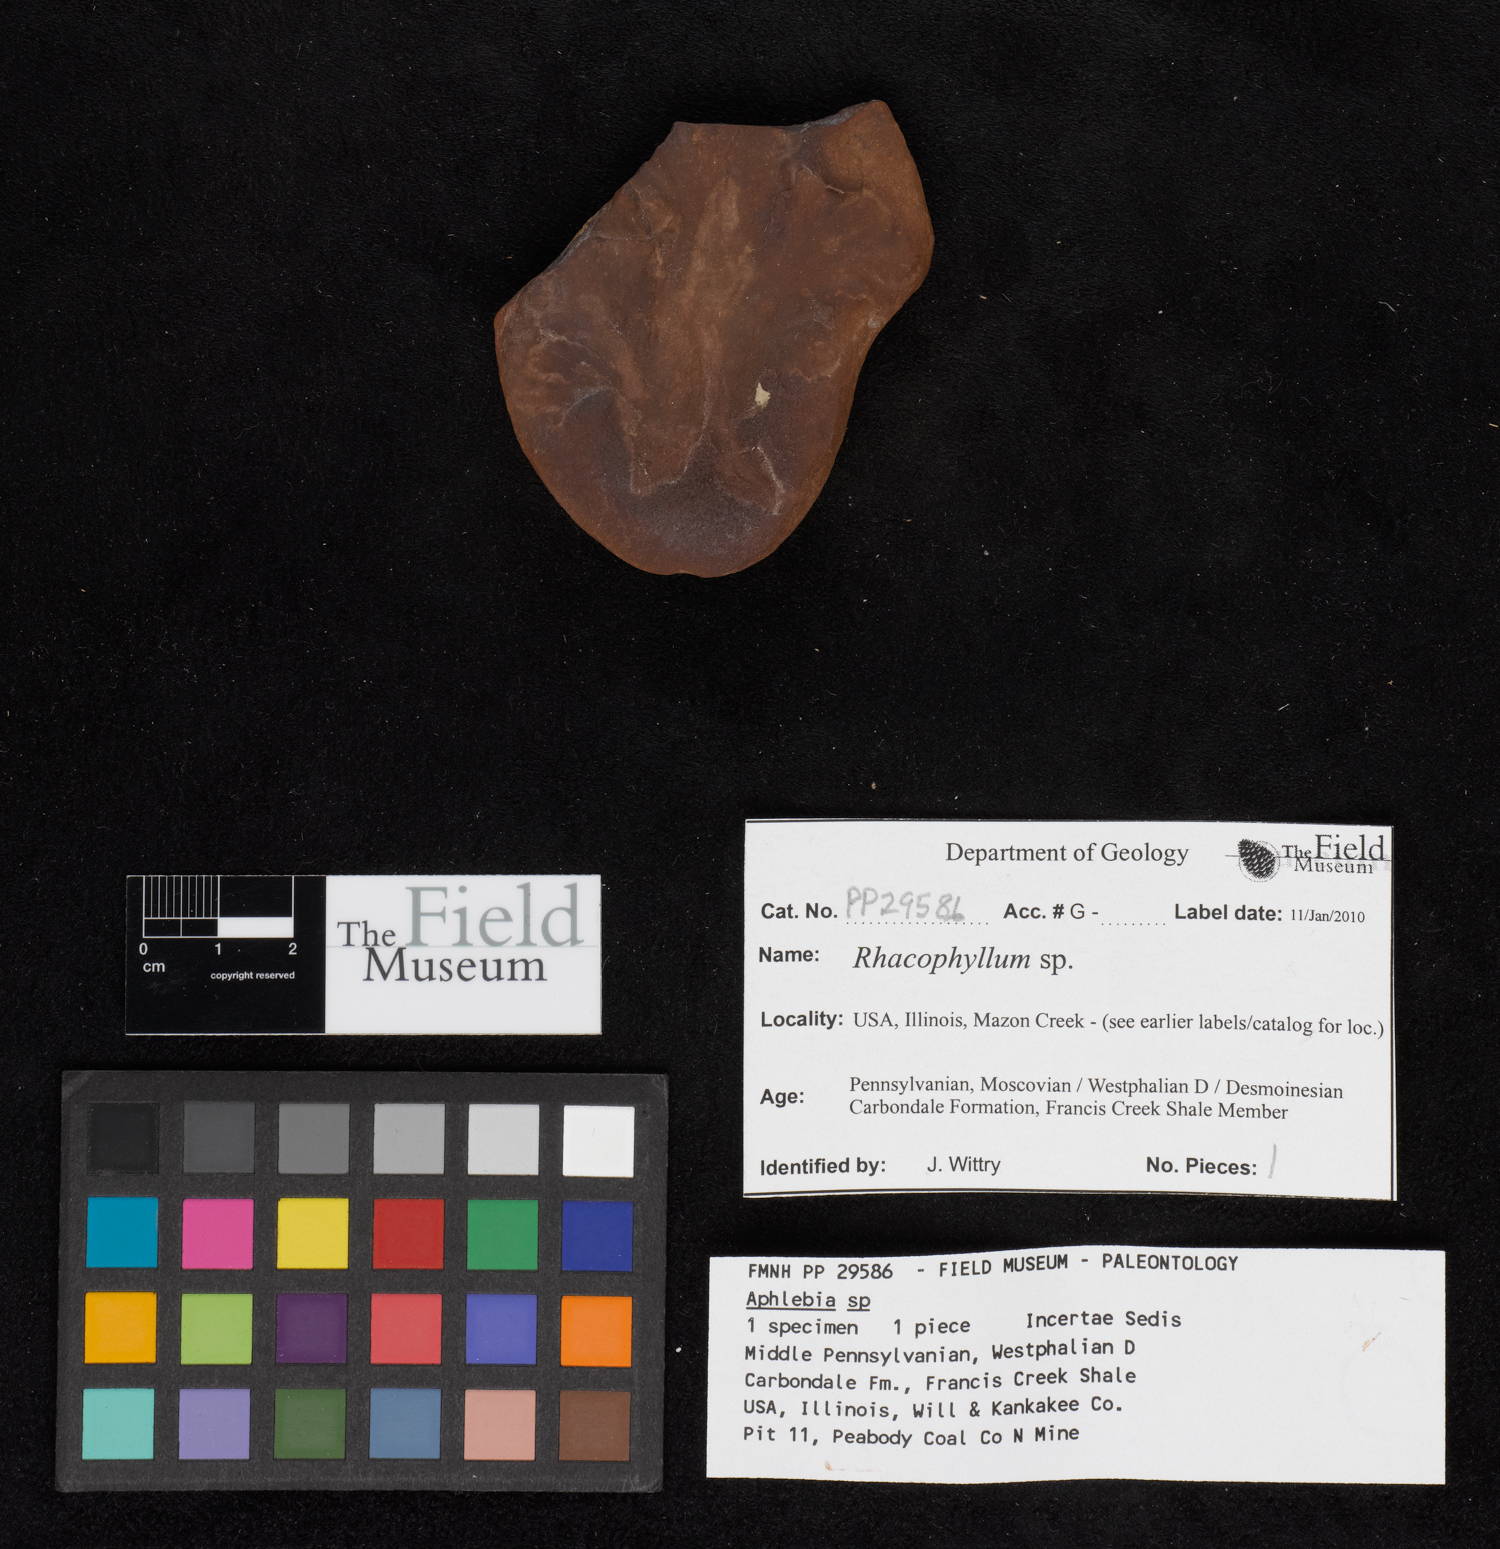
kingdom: Plantae
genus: Rhacophyllum
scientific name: Rhacophyllum
